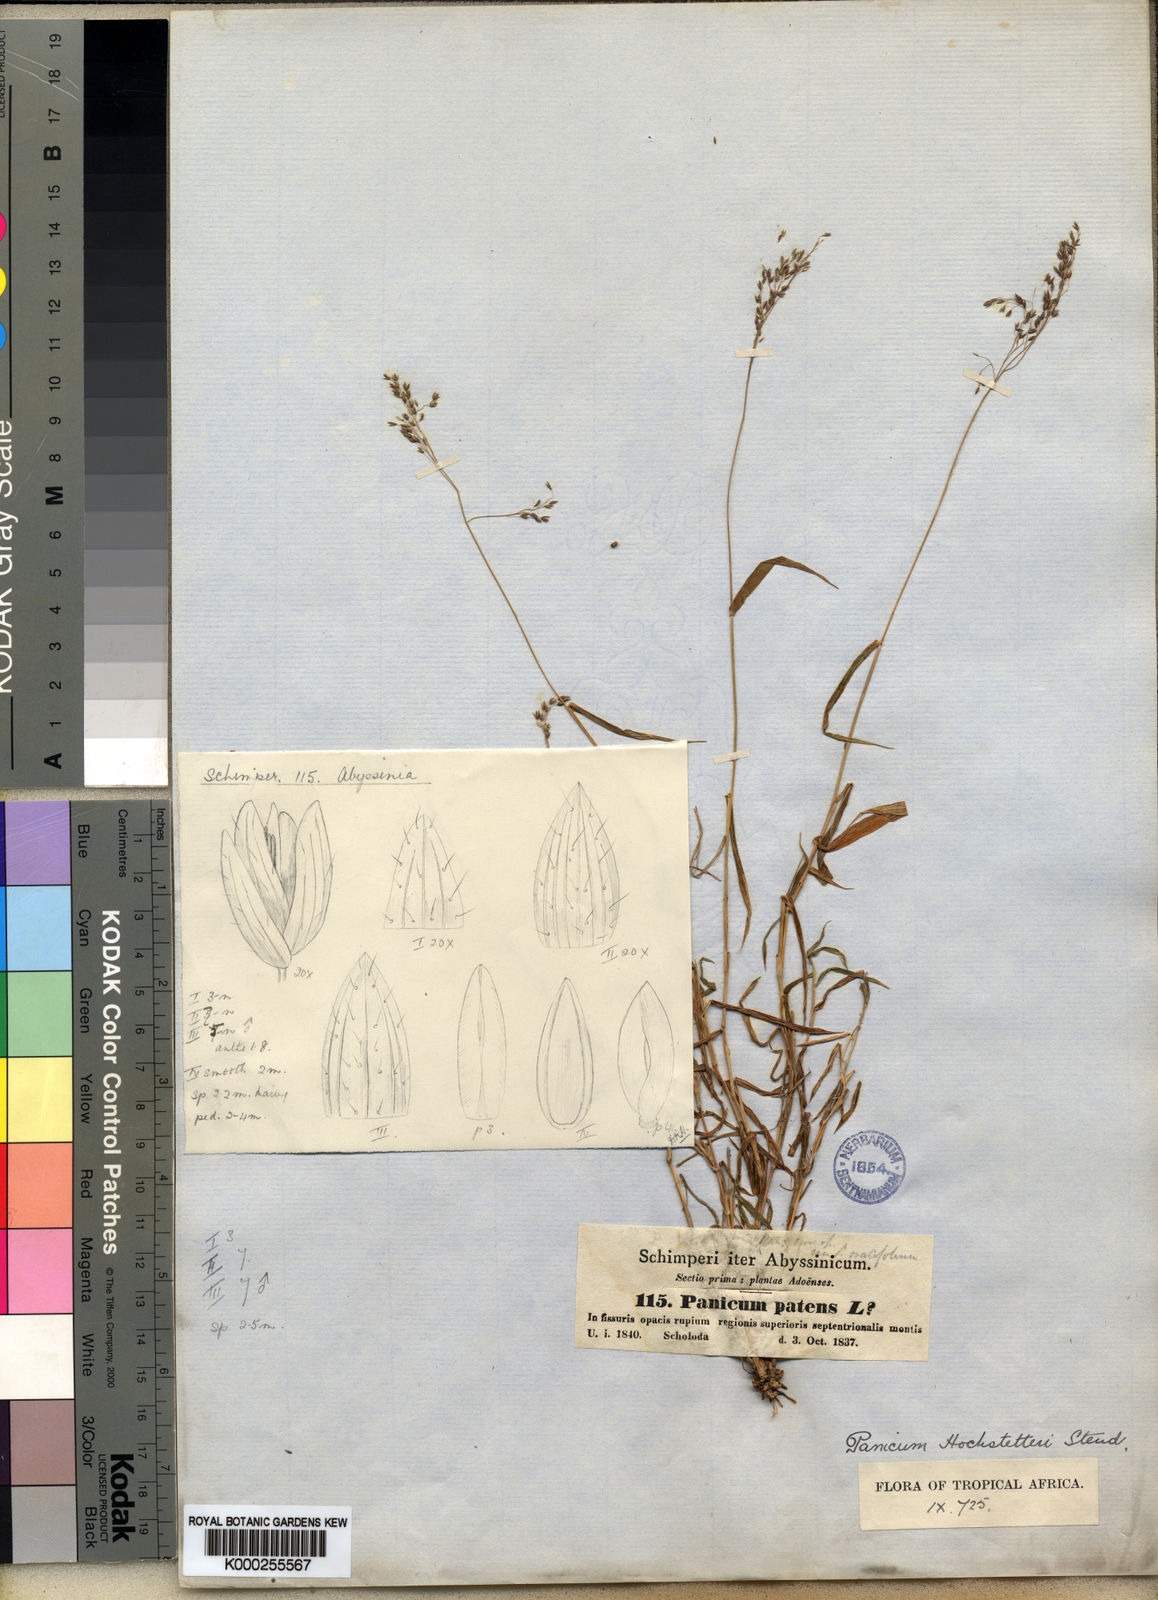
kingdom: Plantae
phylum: Tracheophyta
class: Liliopsida
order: Poales
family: Poaceae
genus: Panicum
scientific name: Panicum hochstetteri
